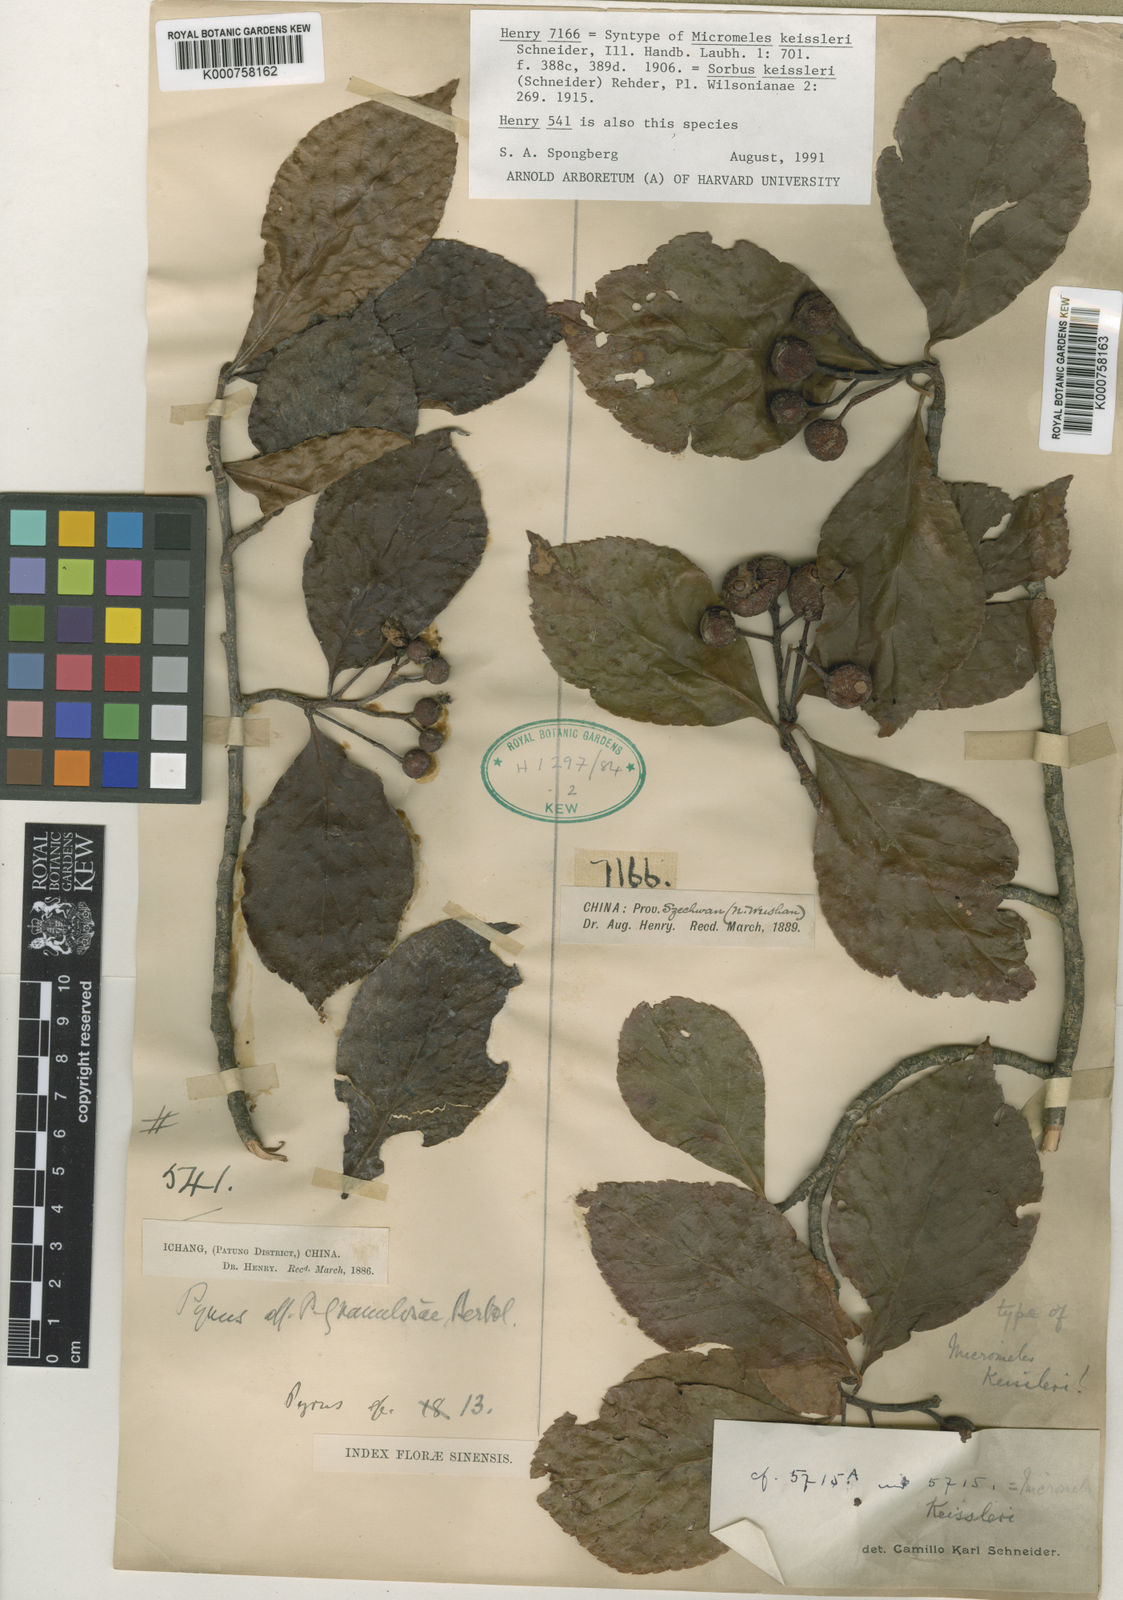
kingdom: Plantae
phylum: Tracheophyta
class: Magnoliopsida
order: Rosales
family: Rosaceae
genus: Sorbus
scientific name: Sorbus decaisneana
